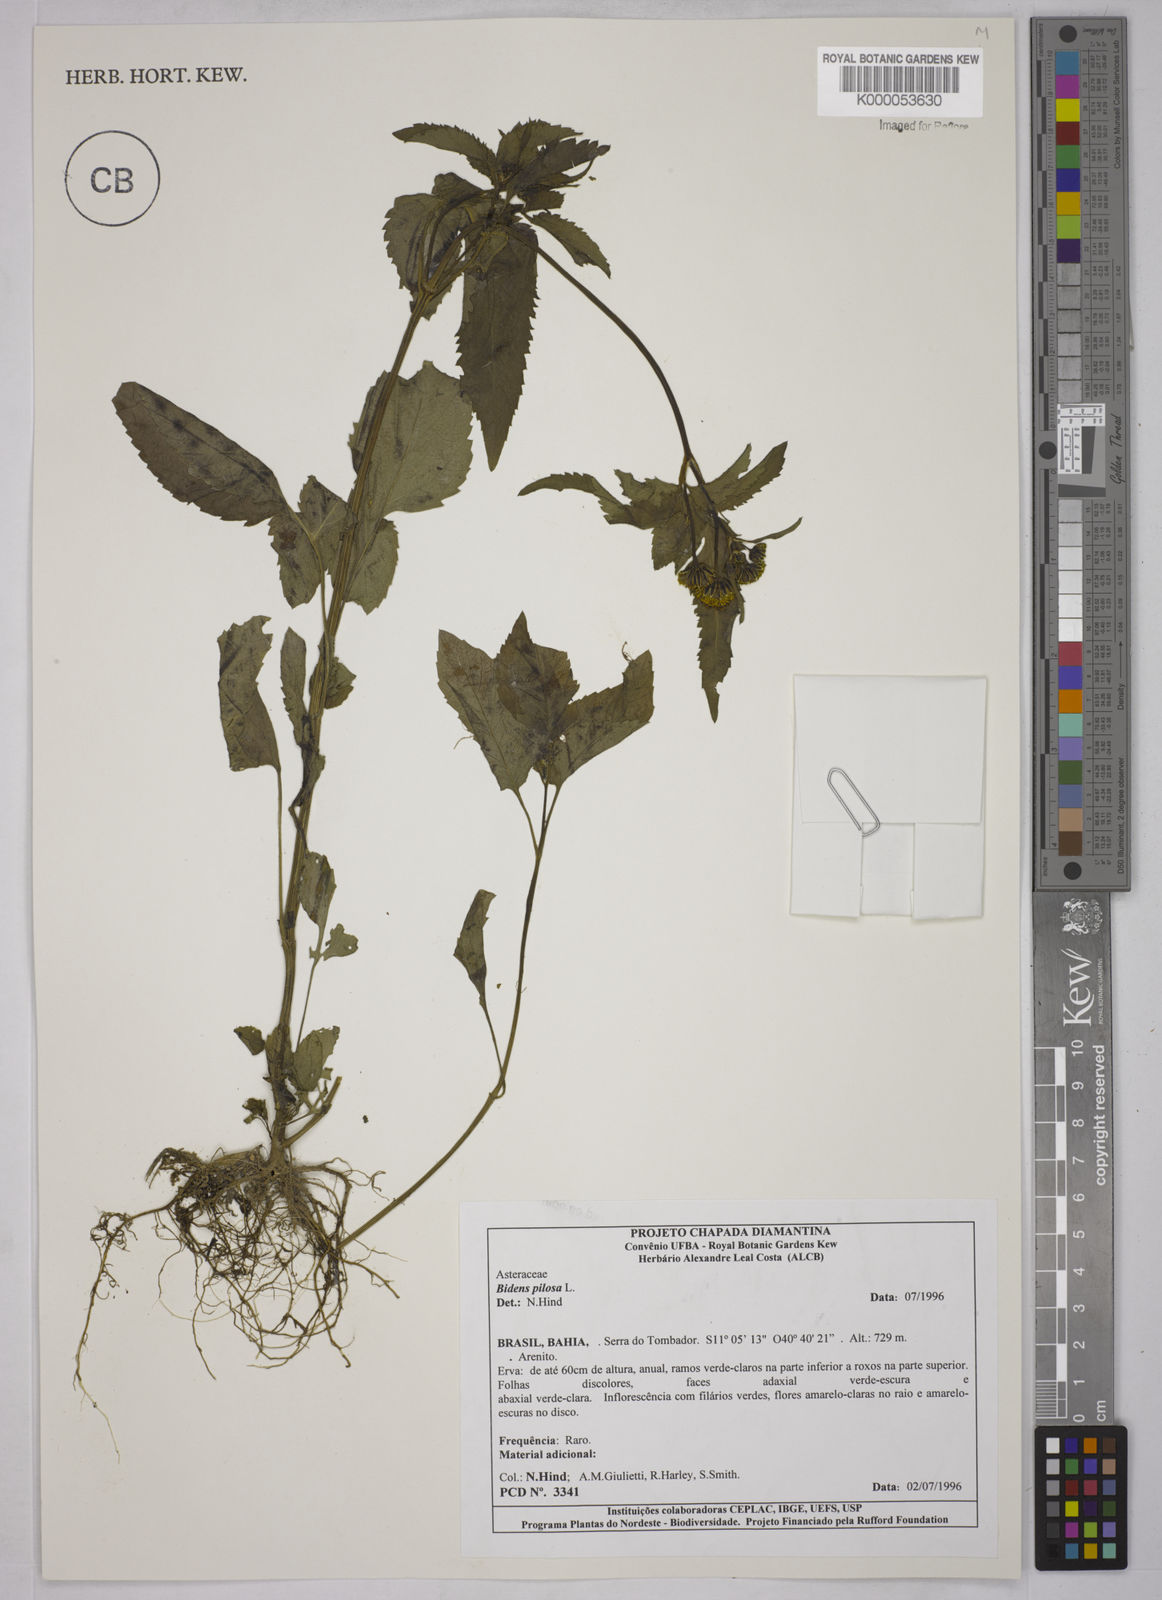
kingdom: Plantae
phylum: Tracheophyta
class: Magnoliopsida
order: Asterales
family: Asteraceae
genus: Bidens
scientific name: Bidens pilosa
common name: Black-jack
